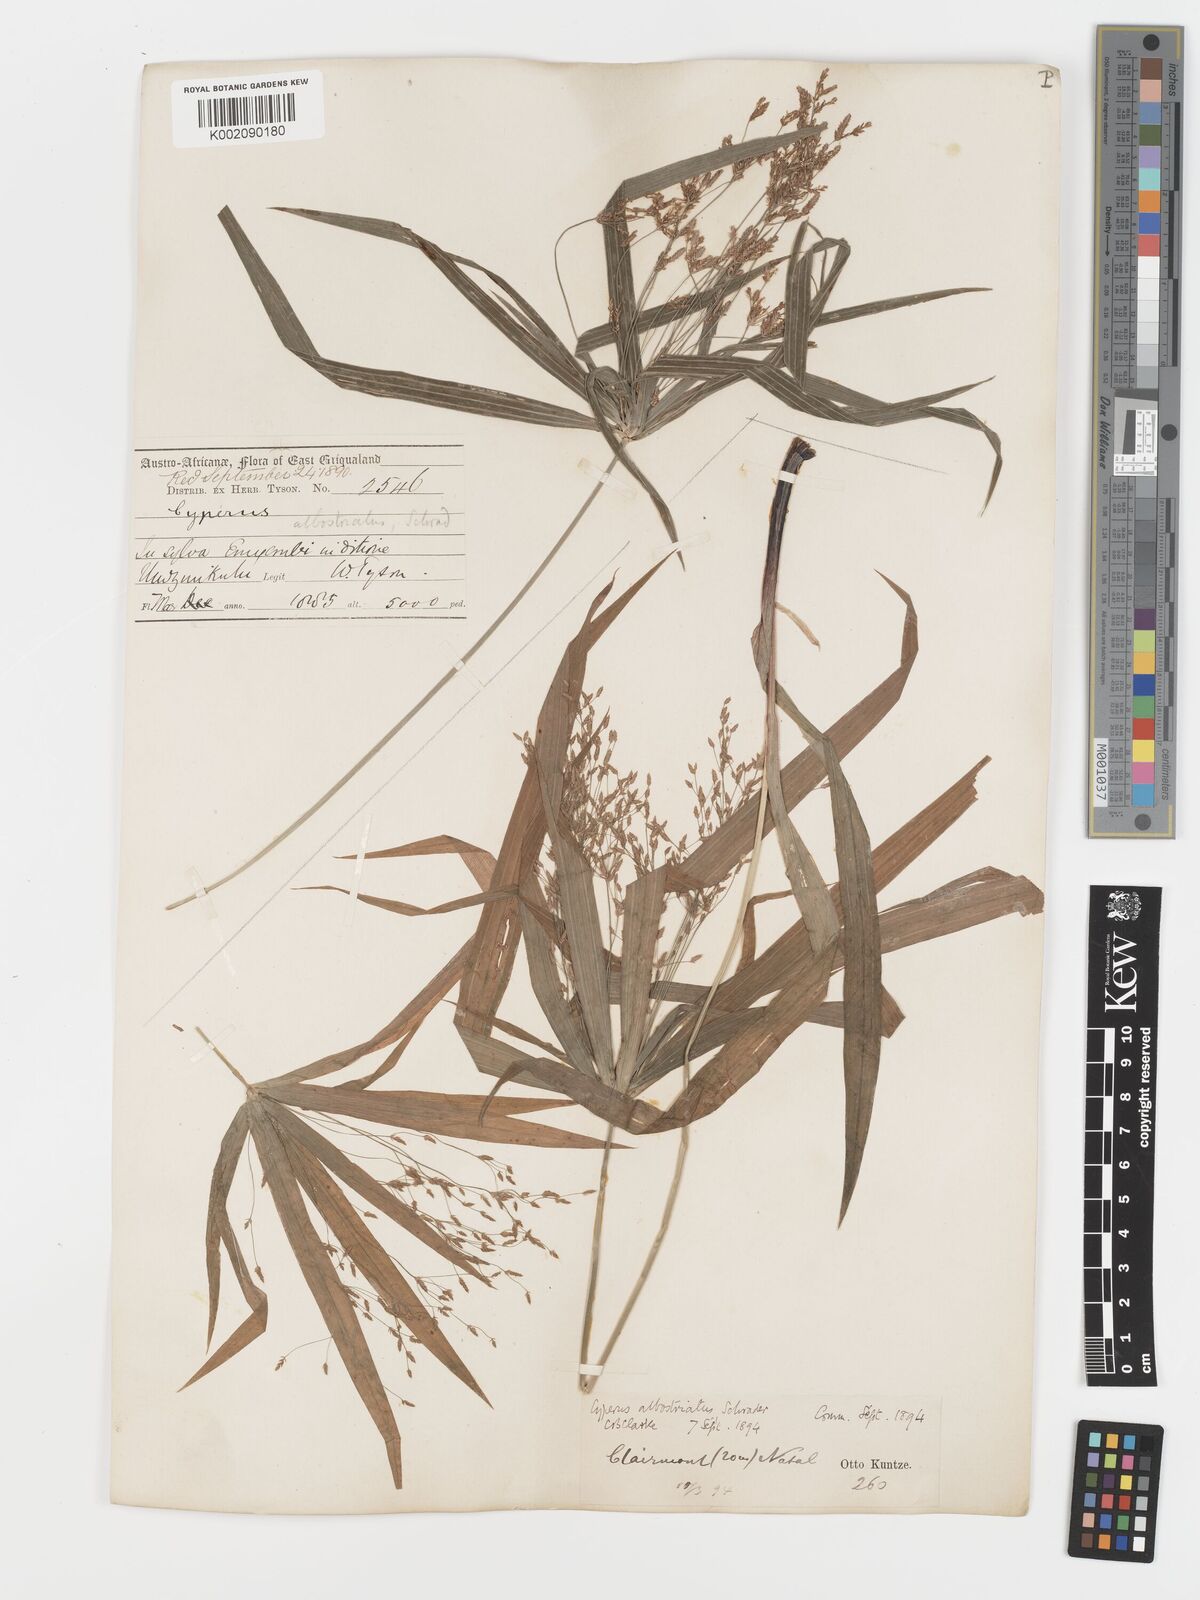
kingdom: Plantae
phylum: Tracheophyta
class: Liliopsida
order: Poales
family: Cyperaceae
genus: Cyperus
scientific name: Cyperus albostriatus
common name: Dwarf umbrella-grass
